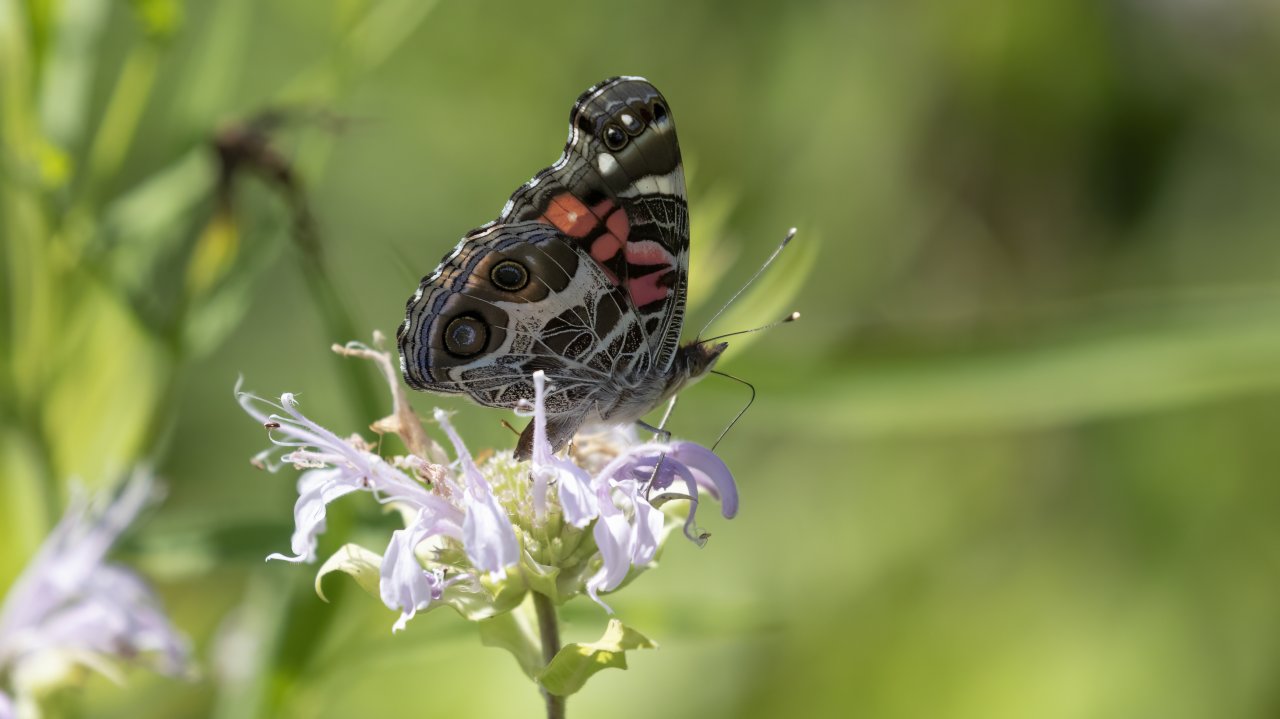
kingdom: Animalia
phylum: Arthropoda
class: Insecta
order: Lepidoptera
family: Nymphalidae
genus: Vanessa
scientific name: Vanessa virginiensis
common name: American Lady
